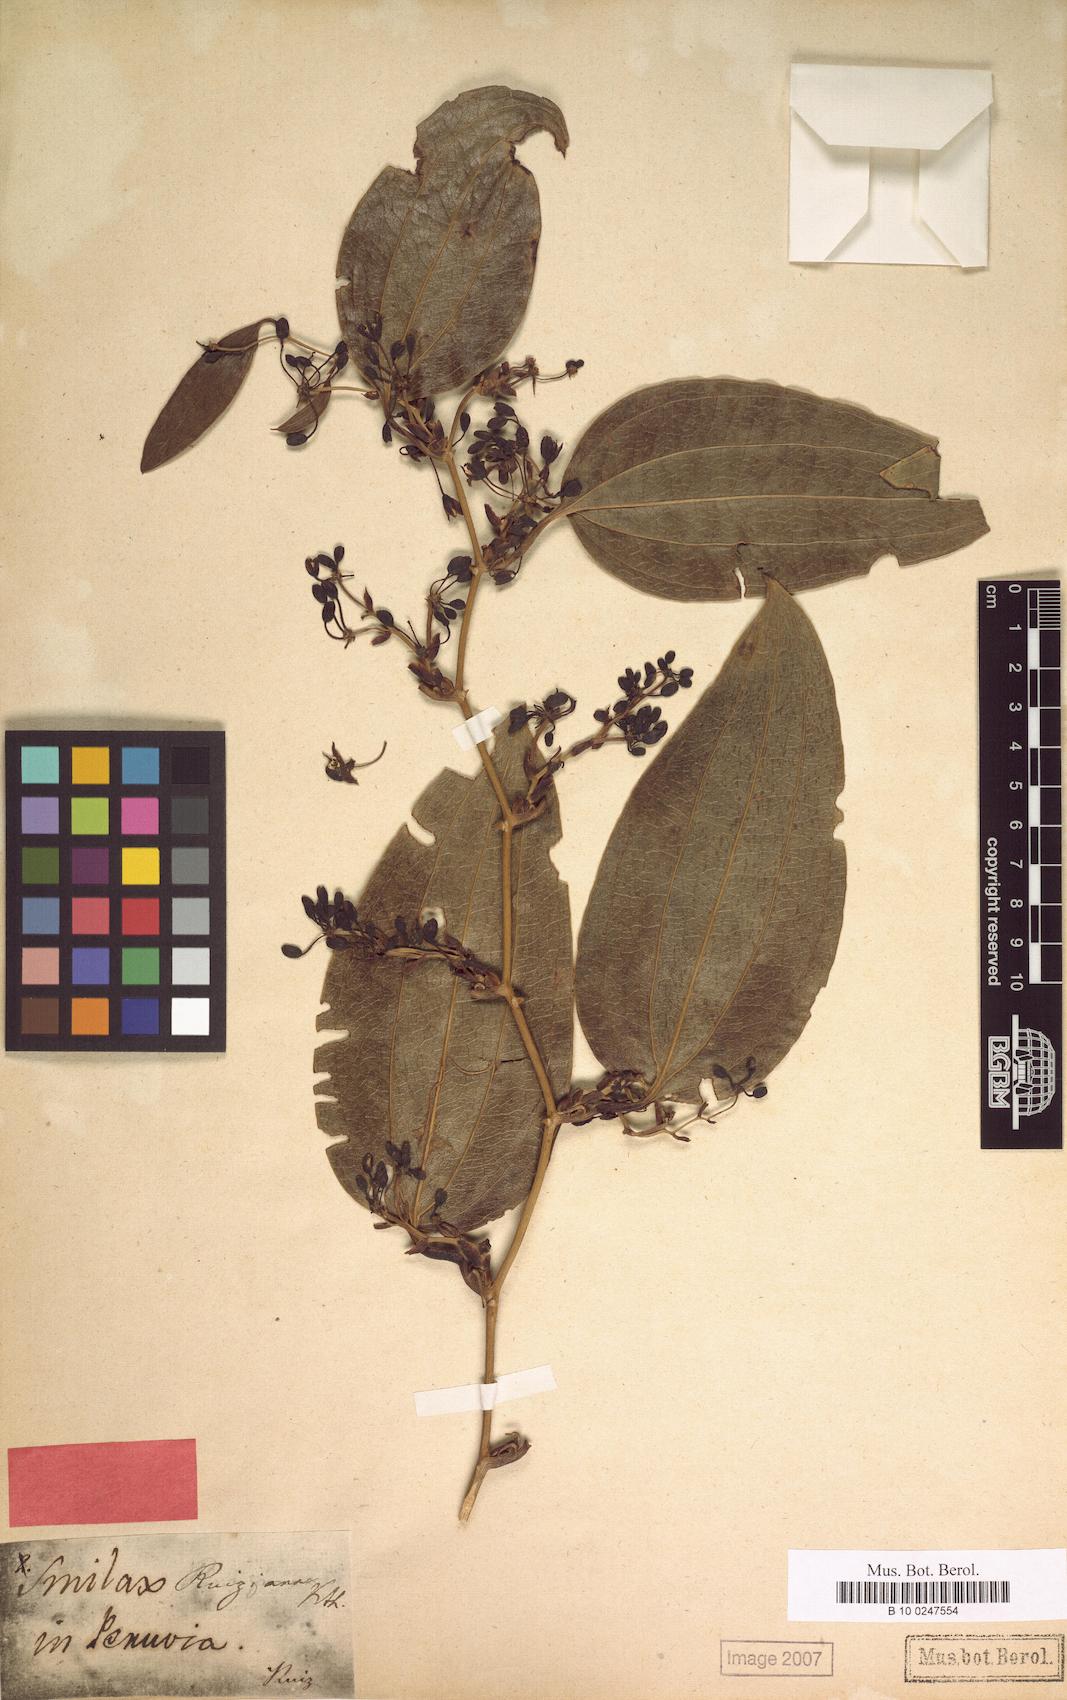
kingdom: Plantae
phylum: Tracheophyta
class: Liliopsida
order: Liliales
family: Smilacaceae
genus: Smilax
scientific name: Smilax purhampuy
